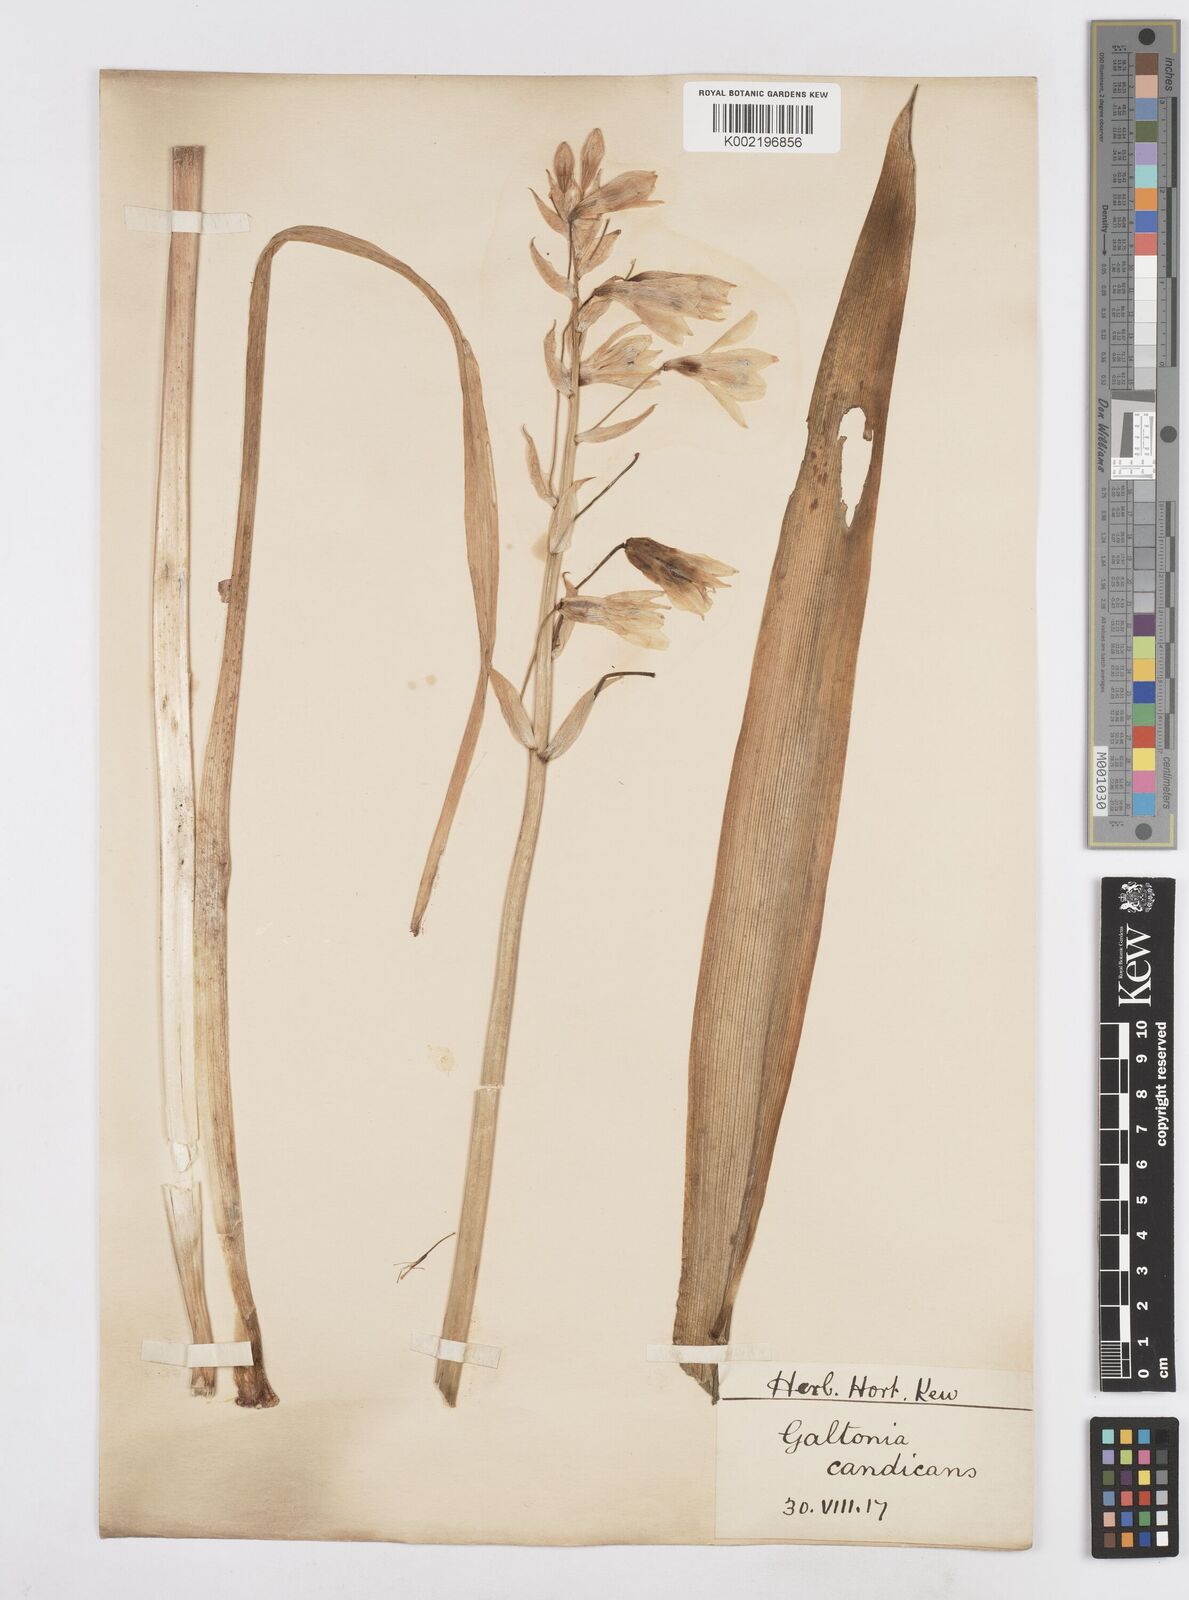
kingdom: Plantae
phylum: Tracheophyta
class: Liliopsida
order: Asparagales
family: Asparagaceae
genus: Ornithogalum
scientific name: Ornithogalum candicans
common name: Summer-hyacinth
